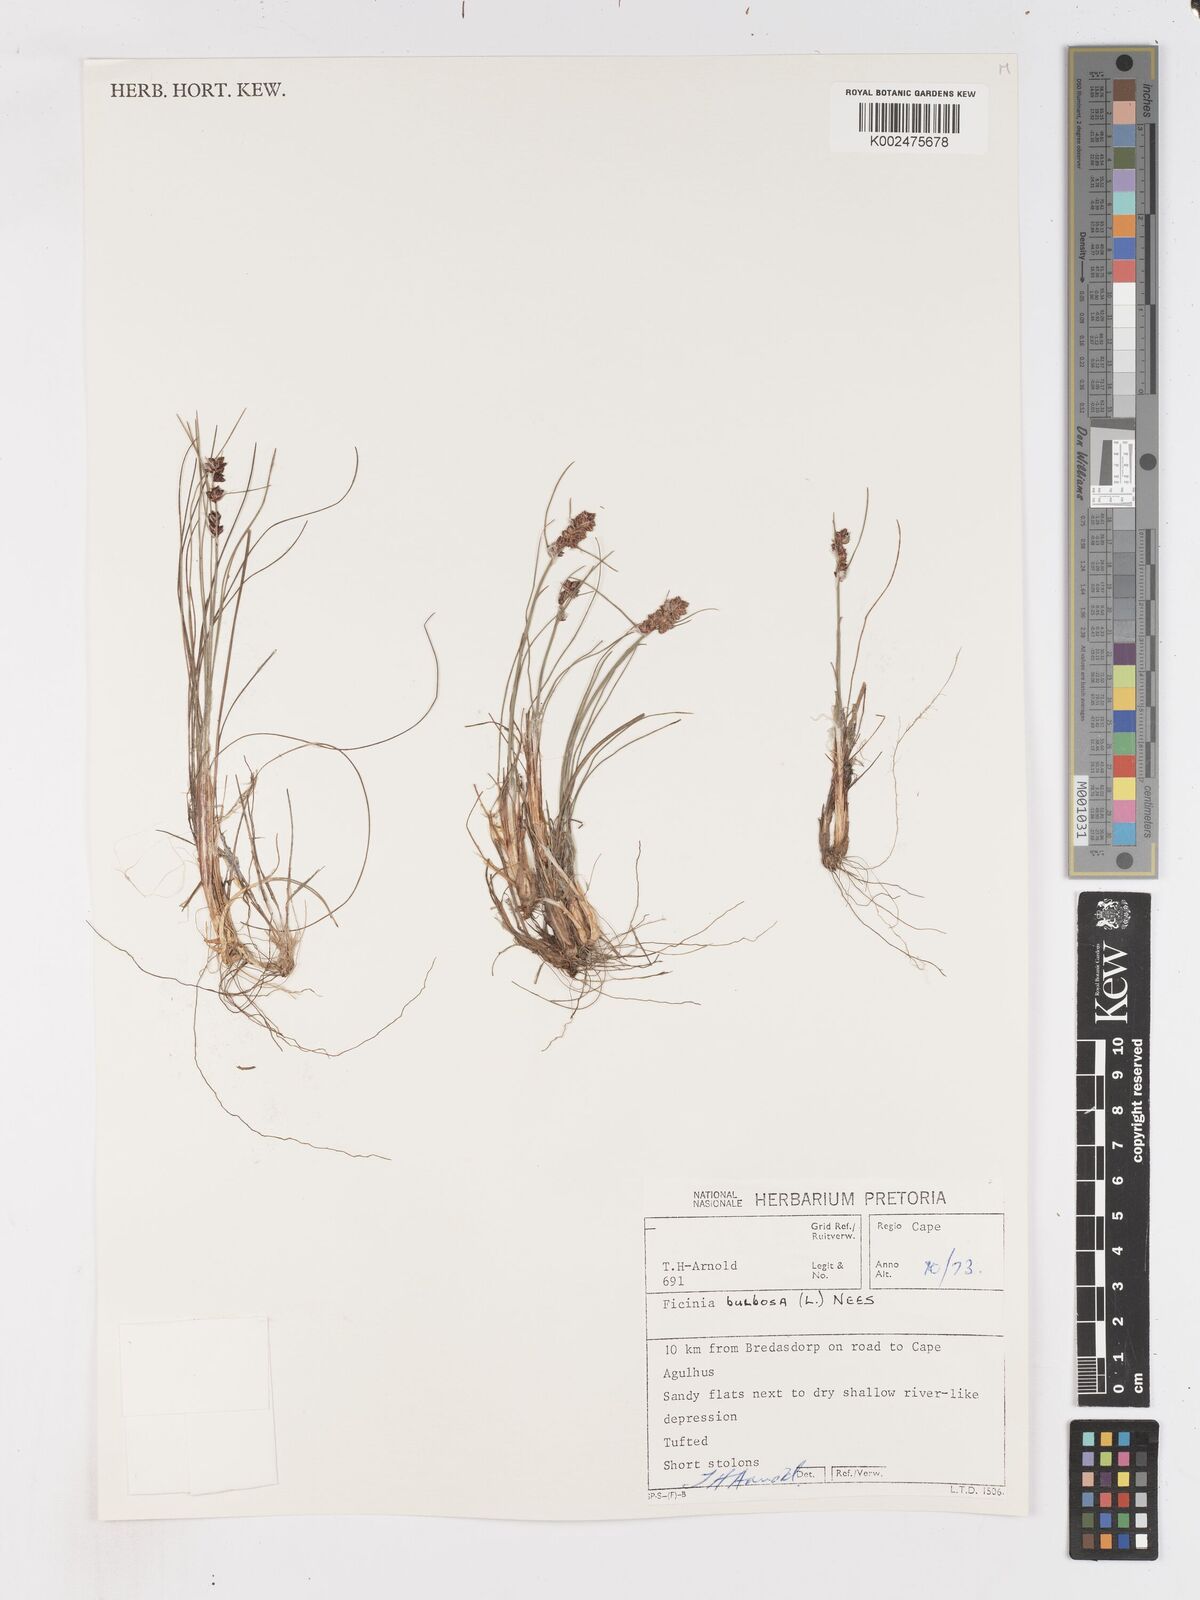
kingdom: Plantae
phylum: Tracheophyta
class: Liliopsida
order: Poales
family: Cyperaceae
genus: Ficinia
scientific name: Ficinia bulbosa
